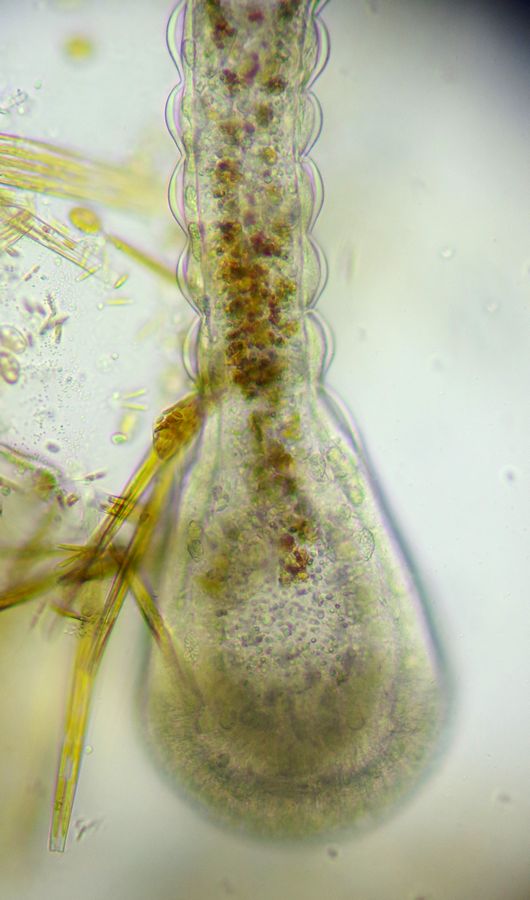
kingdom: Animalia
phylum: Cnidaria
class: Hydrozoa
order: Leptothecata
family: Campanulariidae
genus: Gonothyraea
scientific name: Gonothyraea loveni
